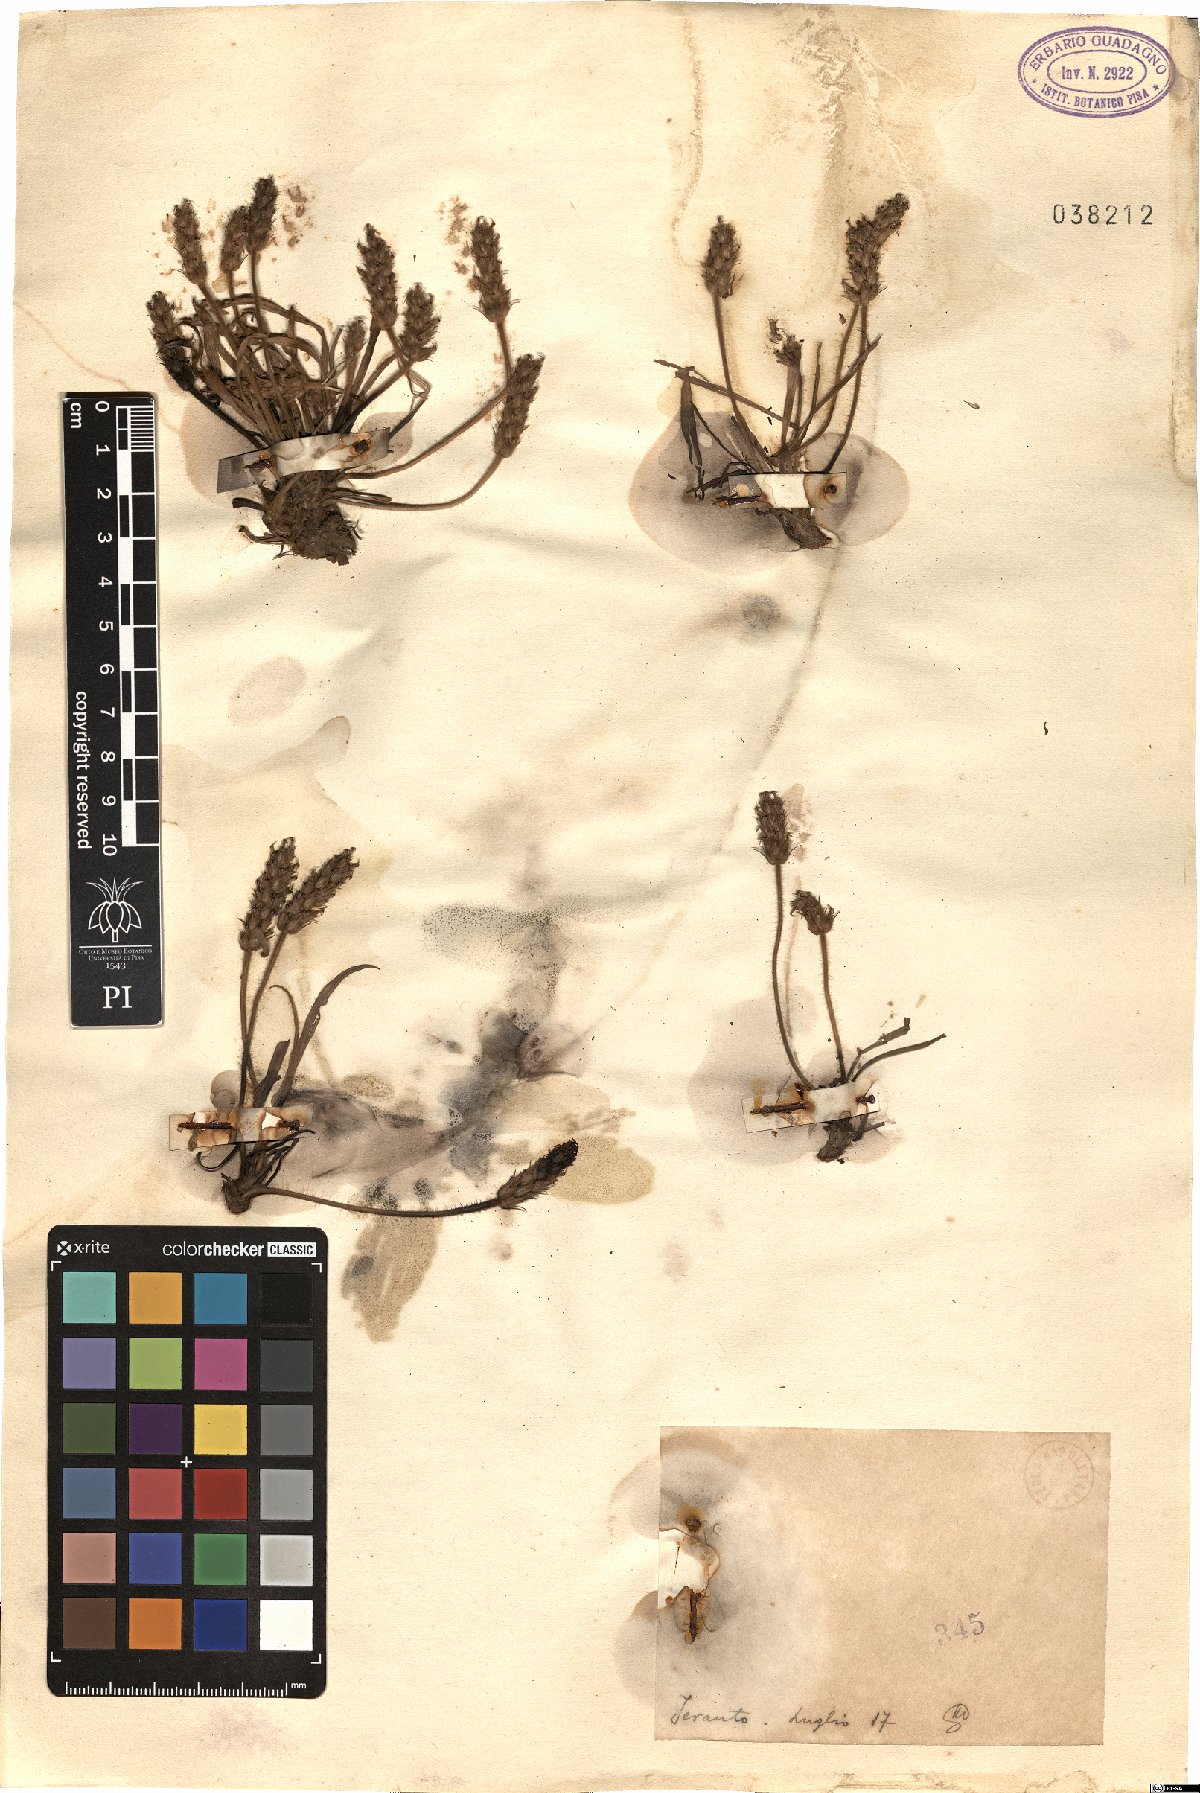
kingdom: Plantae
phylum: Tracheophyta
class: Magnoliopsida
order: Lamiales
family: Plantaginaceae
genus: Plantago
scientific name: Plantago
